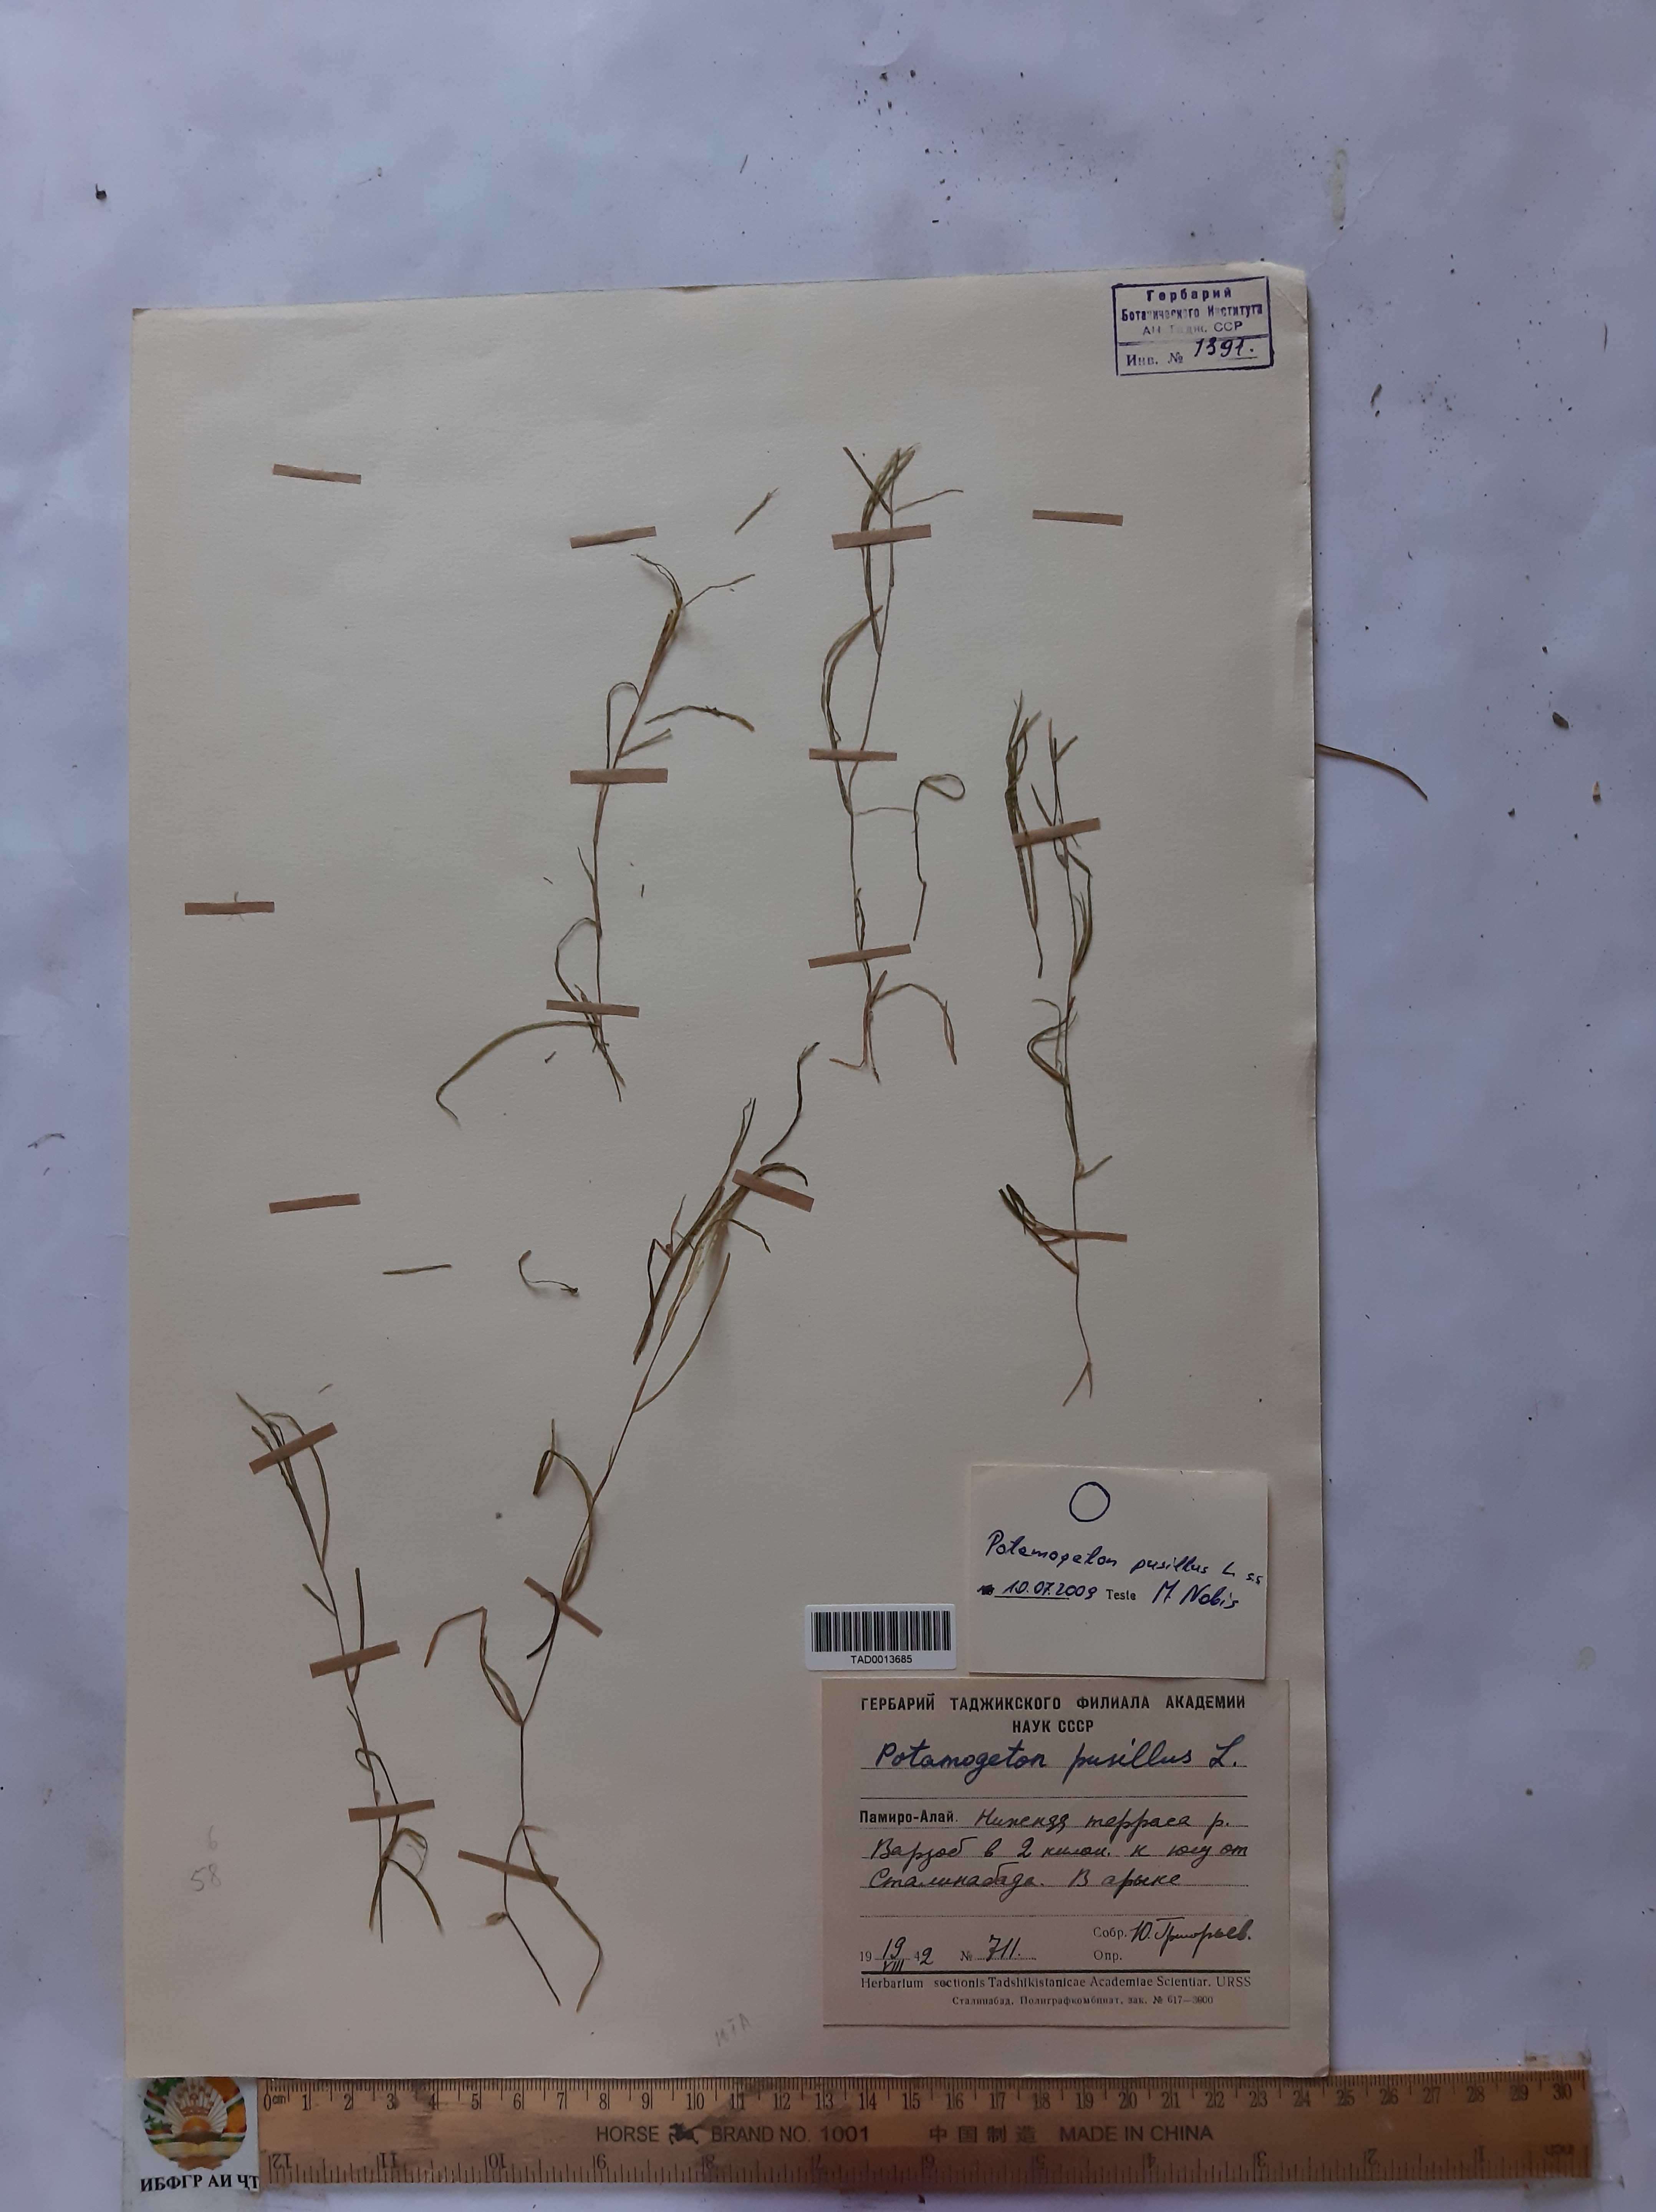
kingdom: Plantae
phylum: Tracheophyta
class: Liliopsida
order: Alismatales
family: Potamogetonaceae
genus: Potamogeton
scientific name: Potamogeton pusillus
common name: Lesser pondweed
